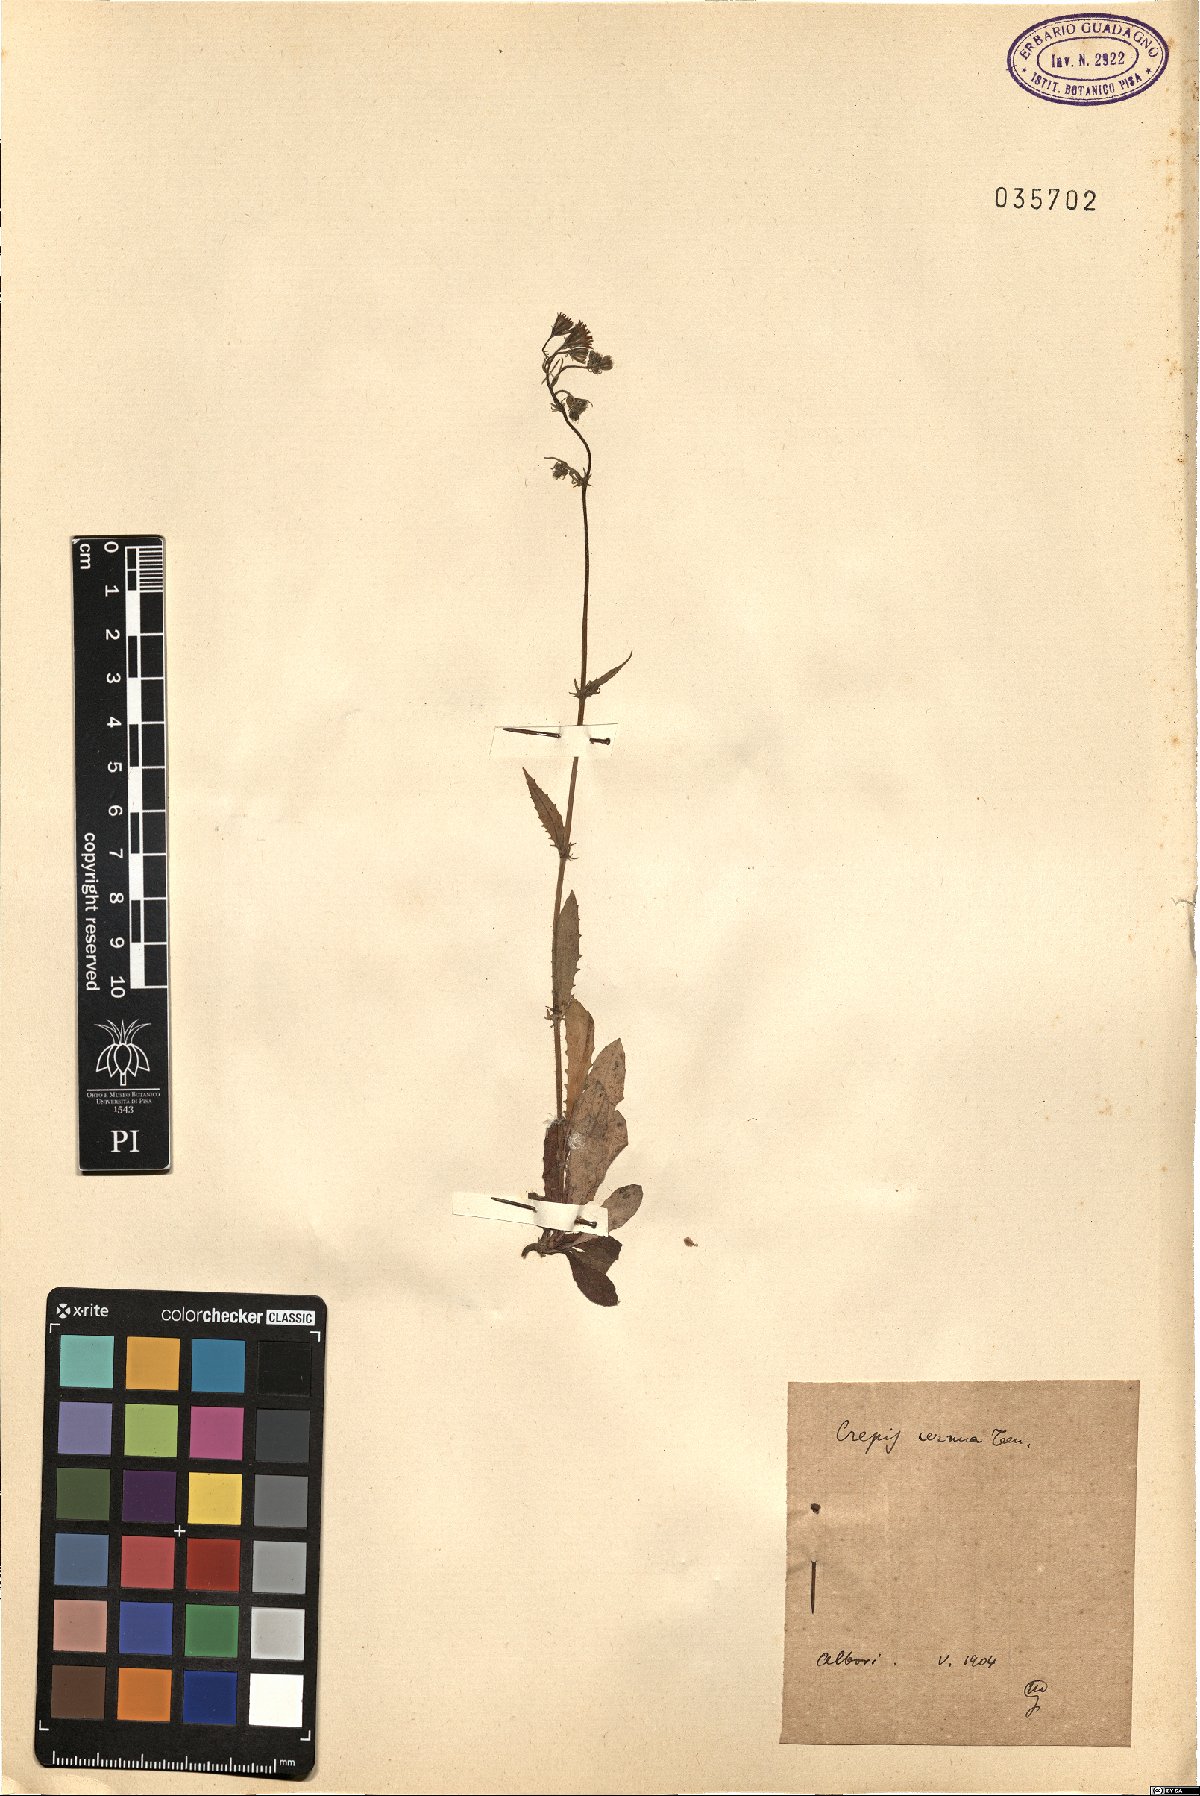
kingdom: Plantae
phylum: Tracheophyta
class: Magnoliopsida
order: Asterales
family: Asteraceae
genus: Crepis
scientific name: Crepis neglecta
